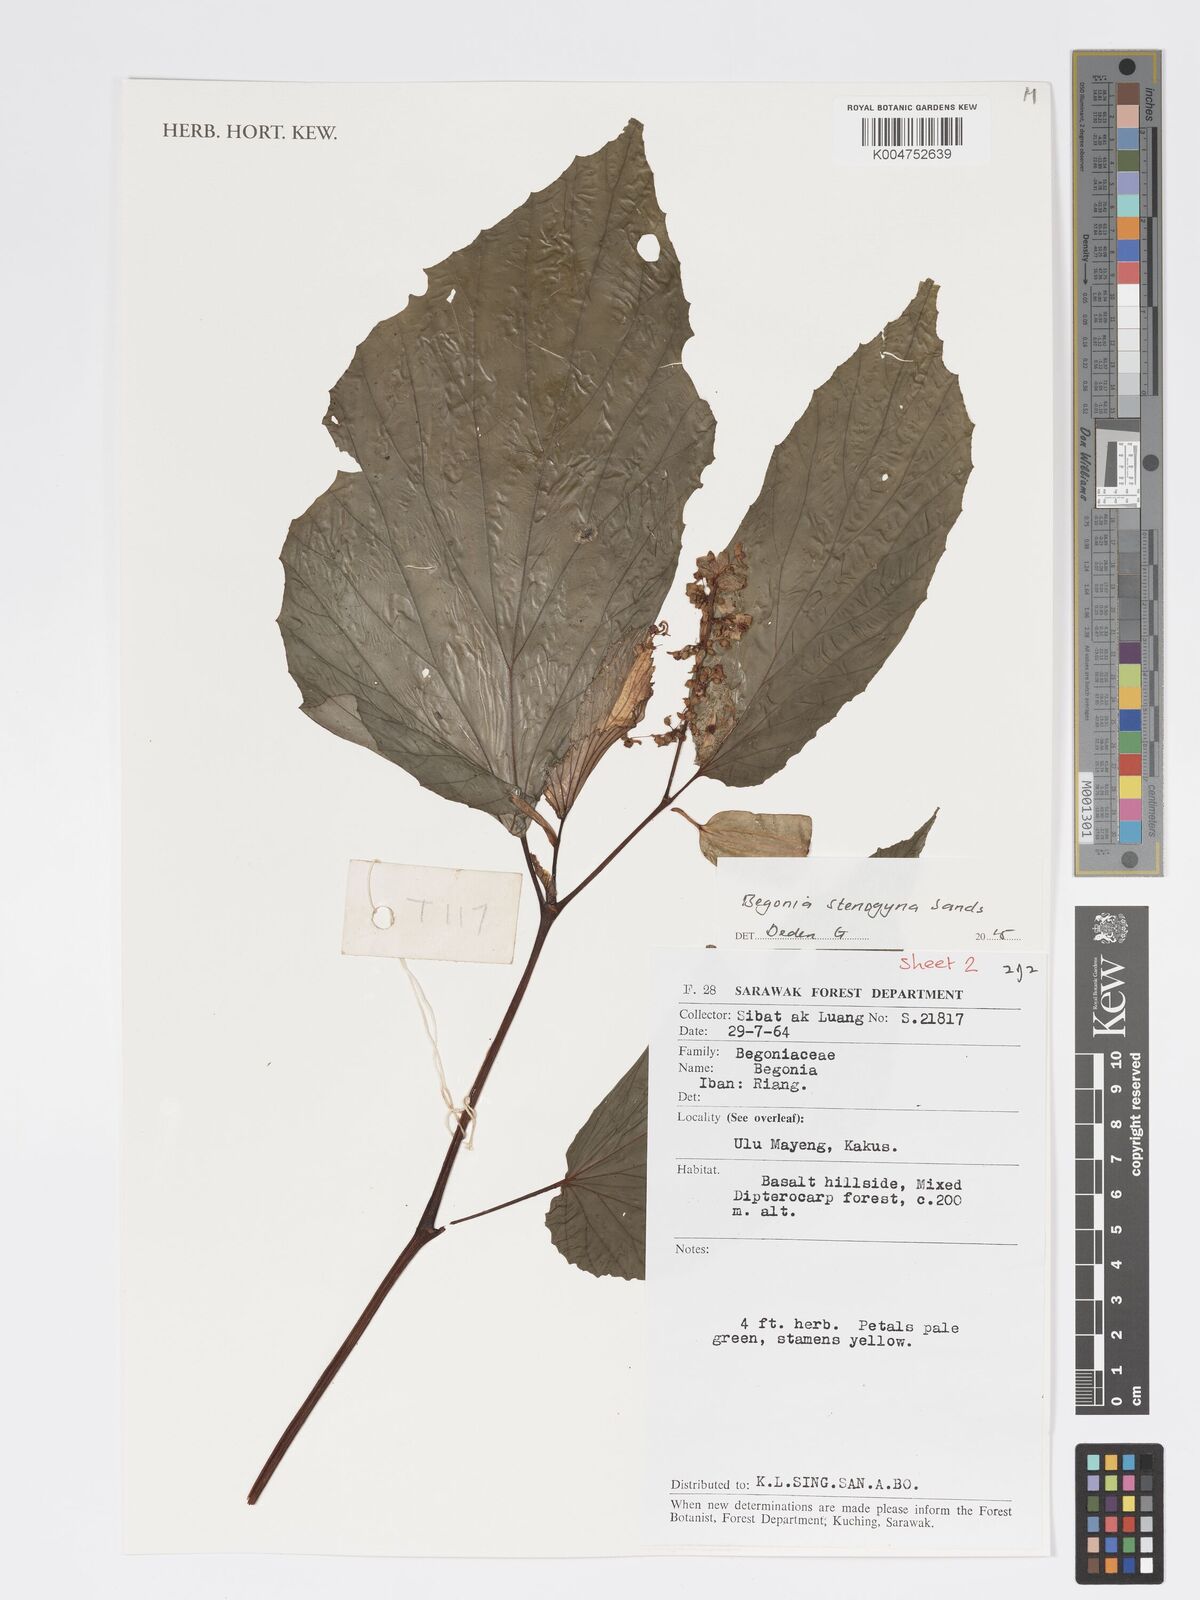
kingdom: Plantae
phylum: Tracheophyta
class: Magnoliopsida
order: Cucurbitales
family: Begoniaceae
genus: Begonia
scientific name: Begonia stenogyna
